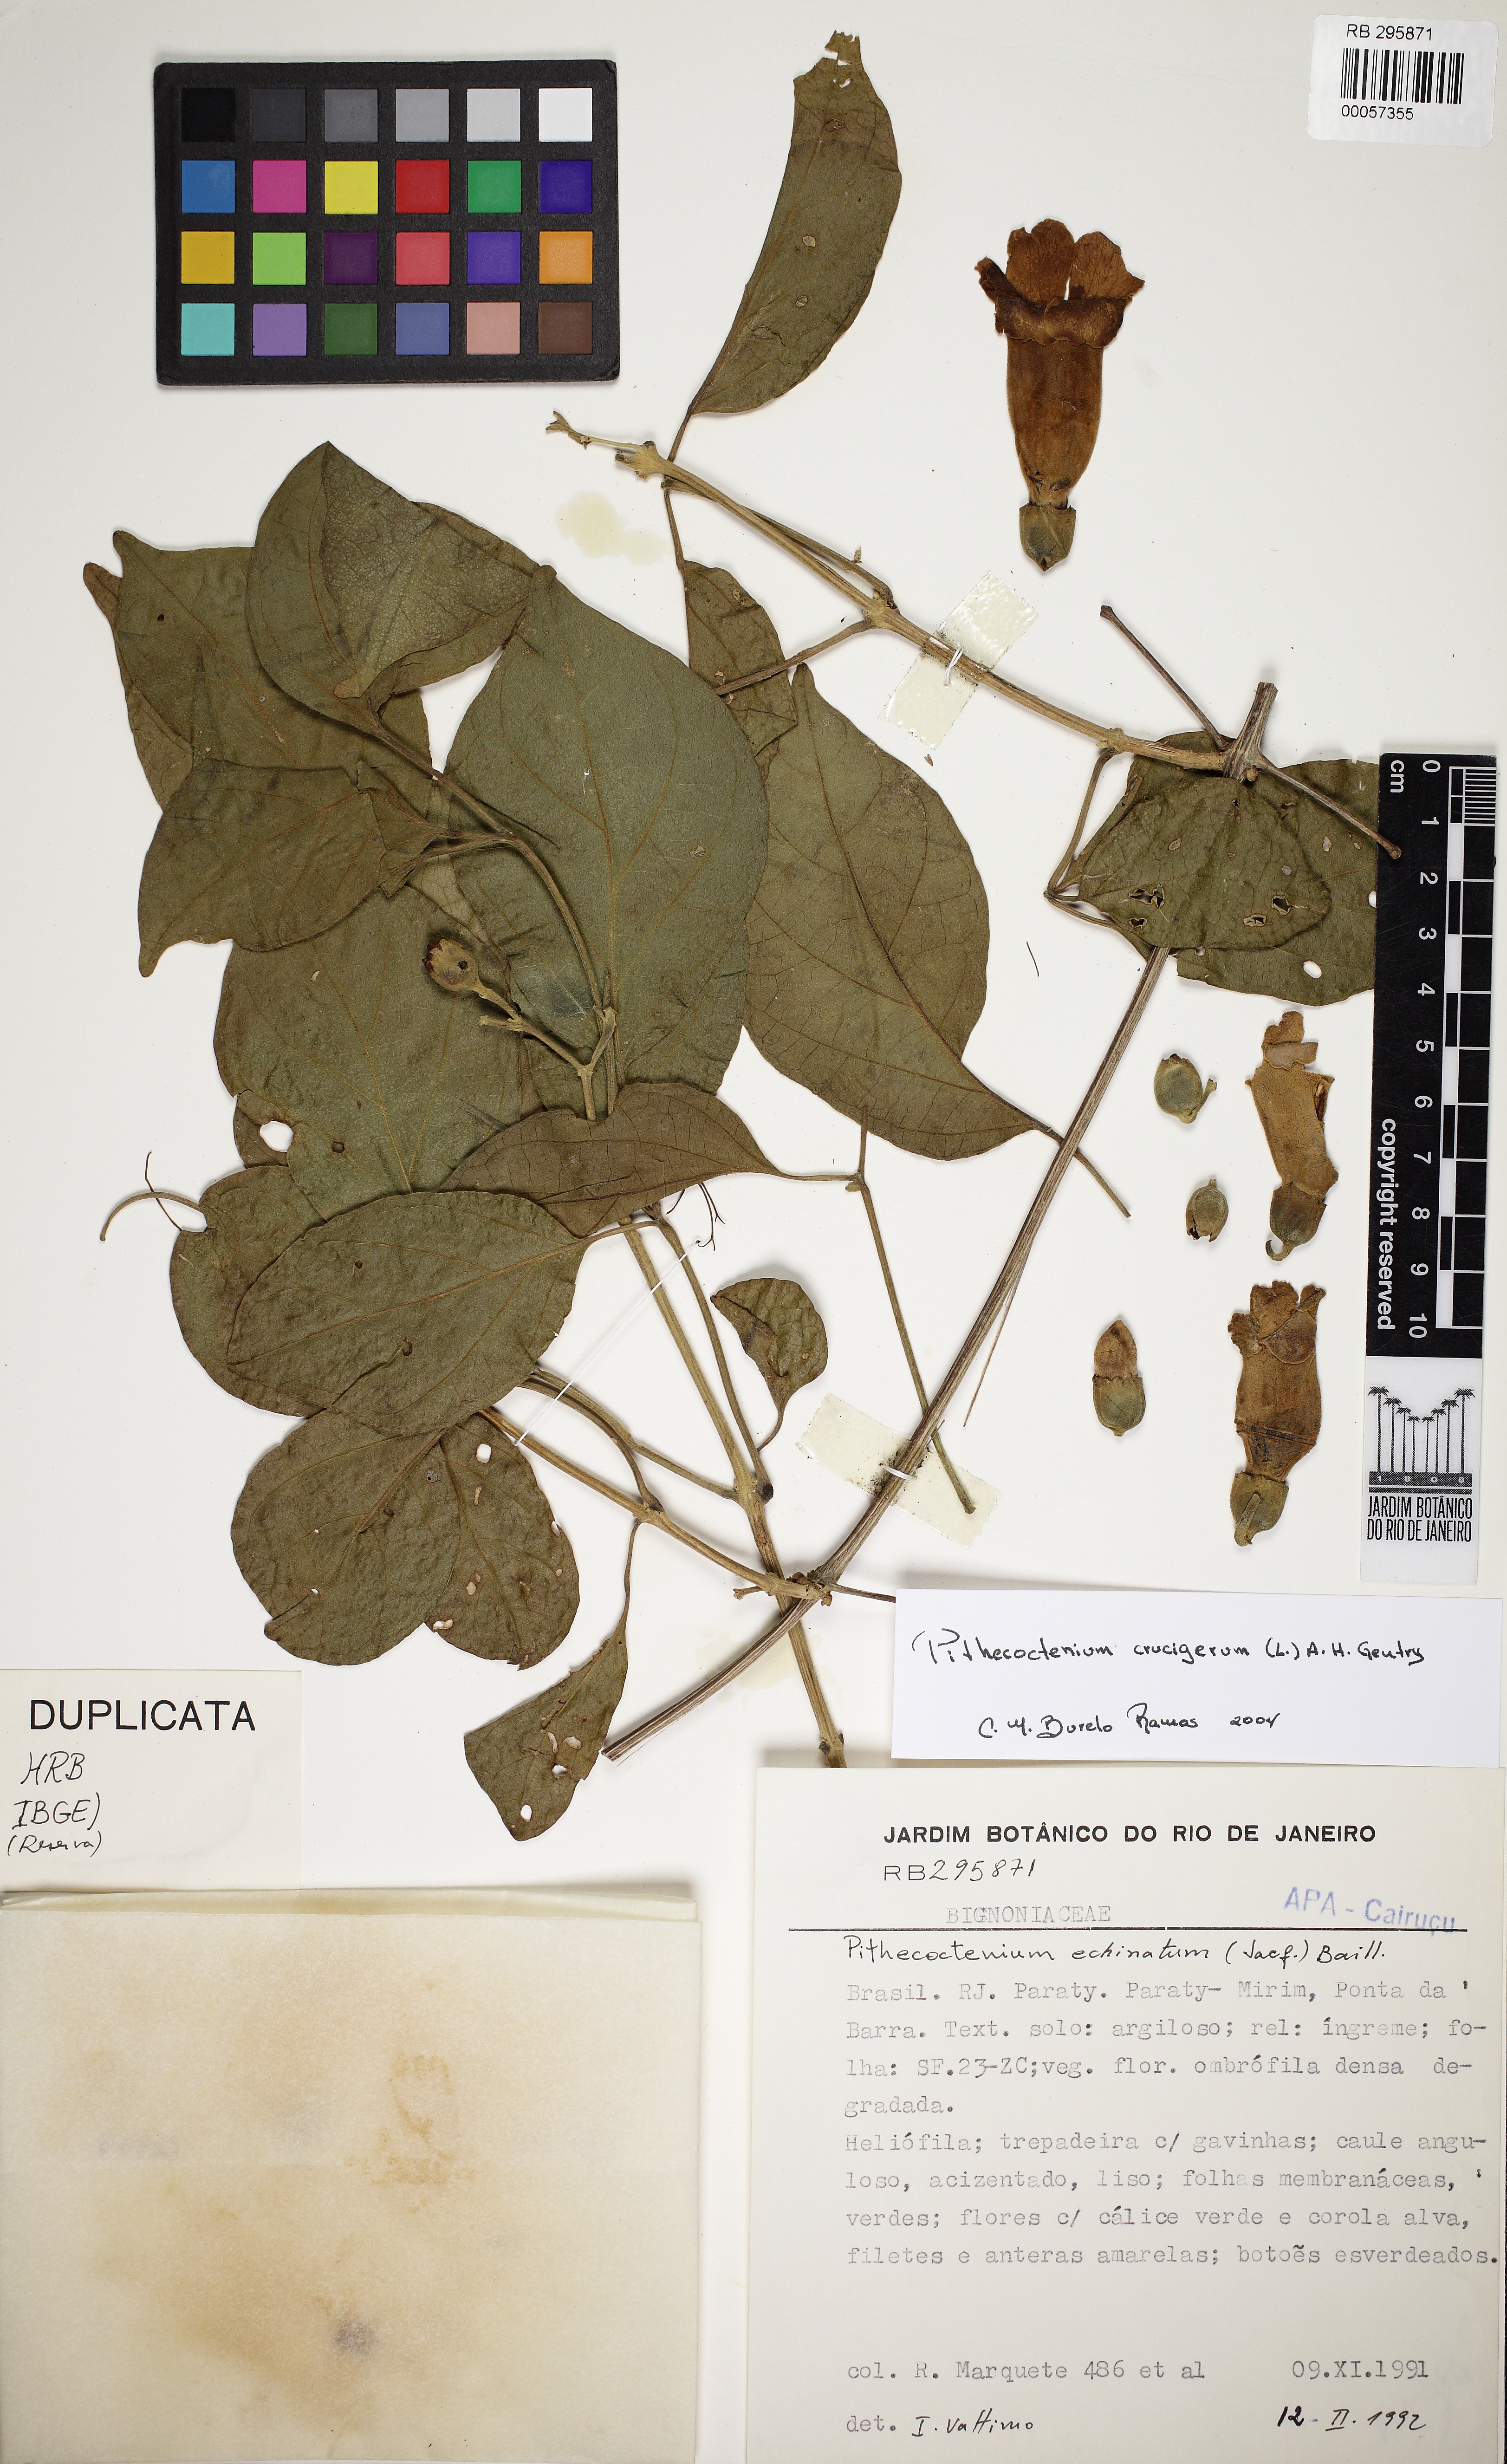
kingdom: Plantae
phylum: Tracheophyta
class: Magnoliopsida
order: Lamiales
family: Bignoniaceae
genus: Amphilophium
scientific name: Amphilophium crucigerum
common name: Monkey comb
